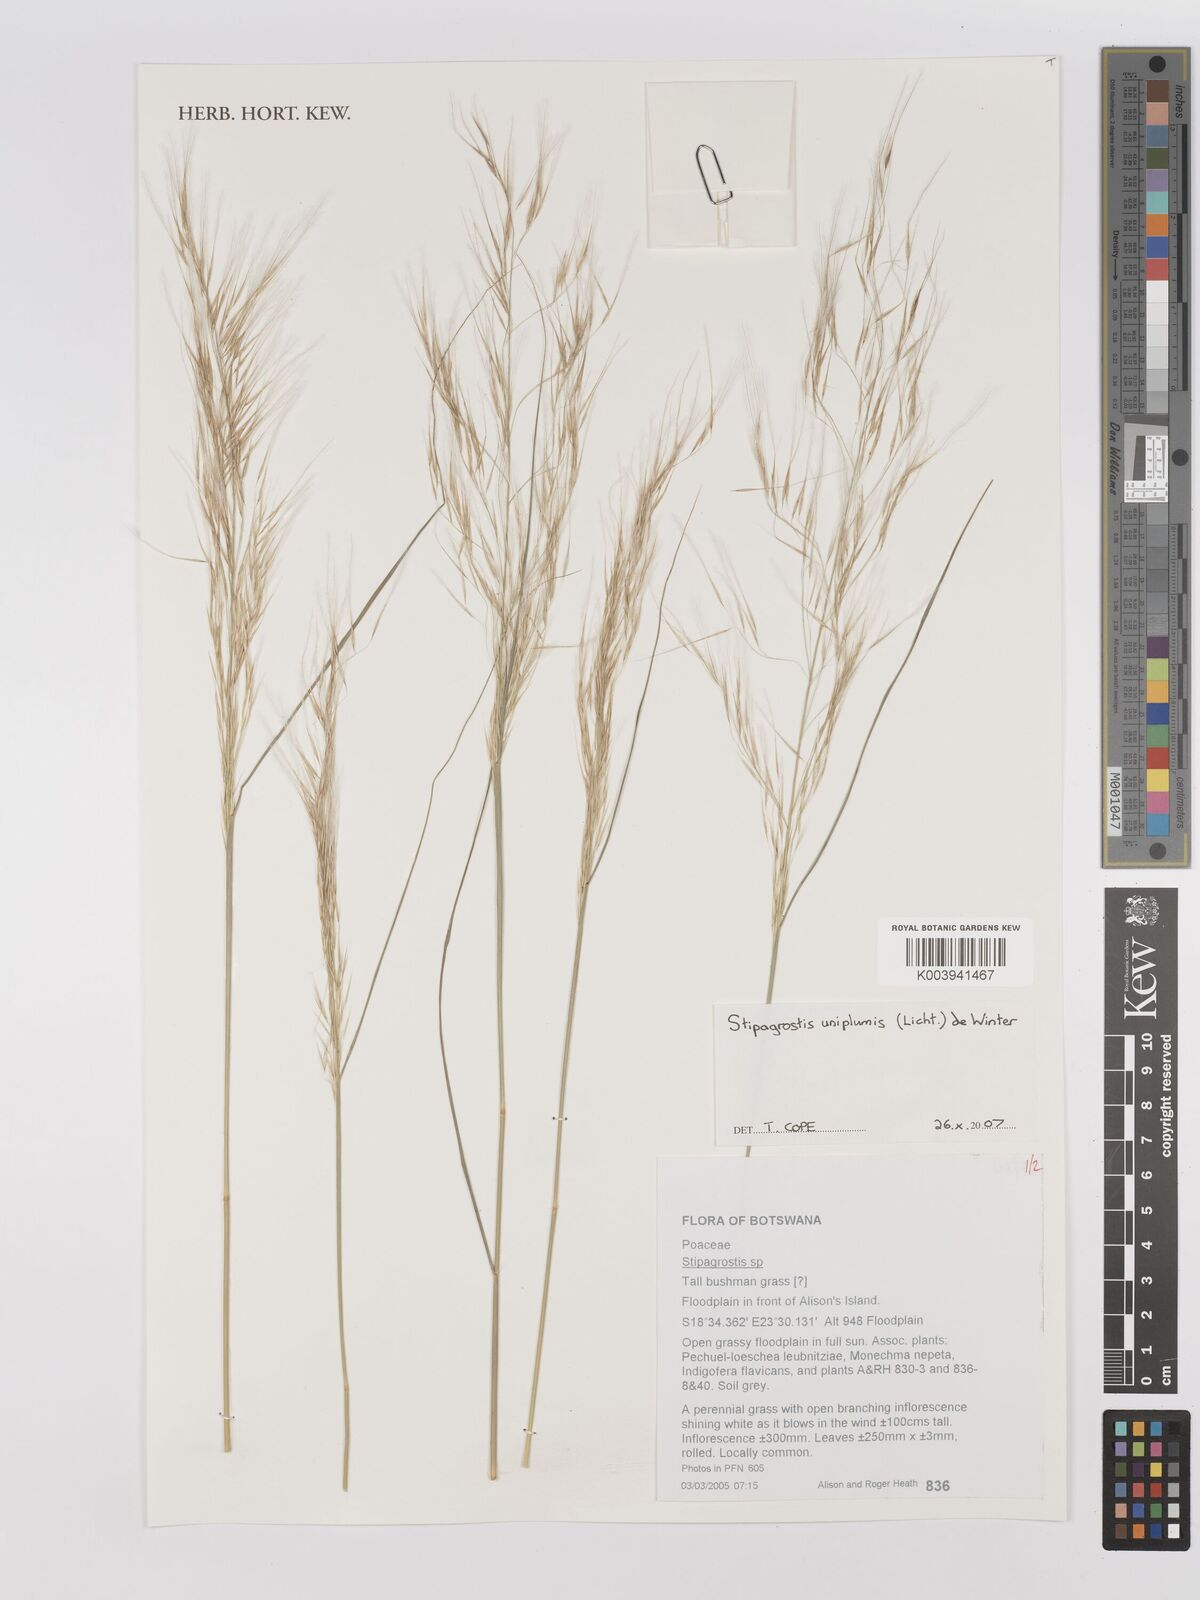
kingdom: Plantae
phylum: Tracheophyta
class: Liliopsida
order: Poales
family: Poaceae
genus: Stipagrostis
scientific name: Stipagrostis uniplumis
